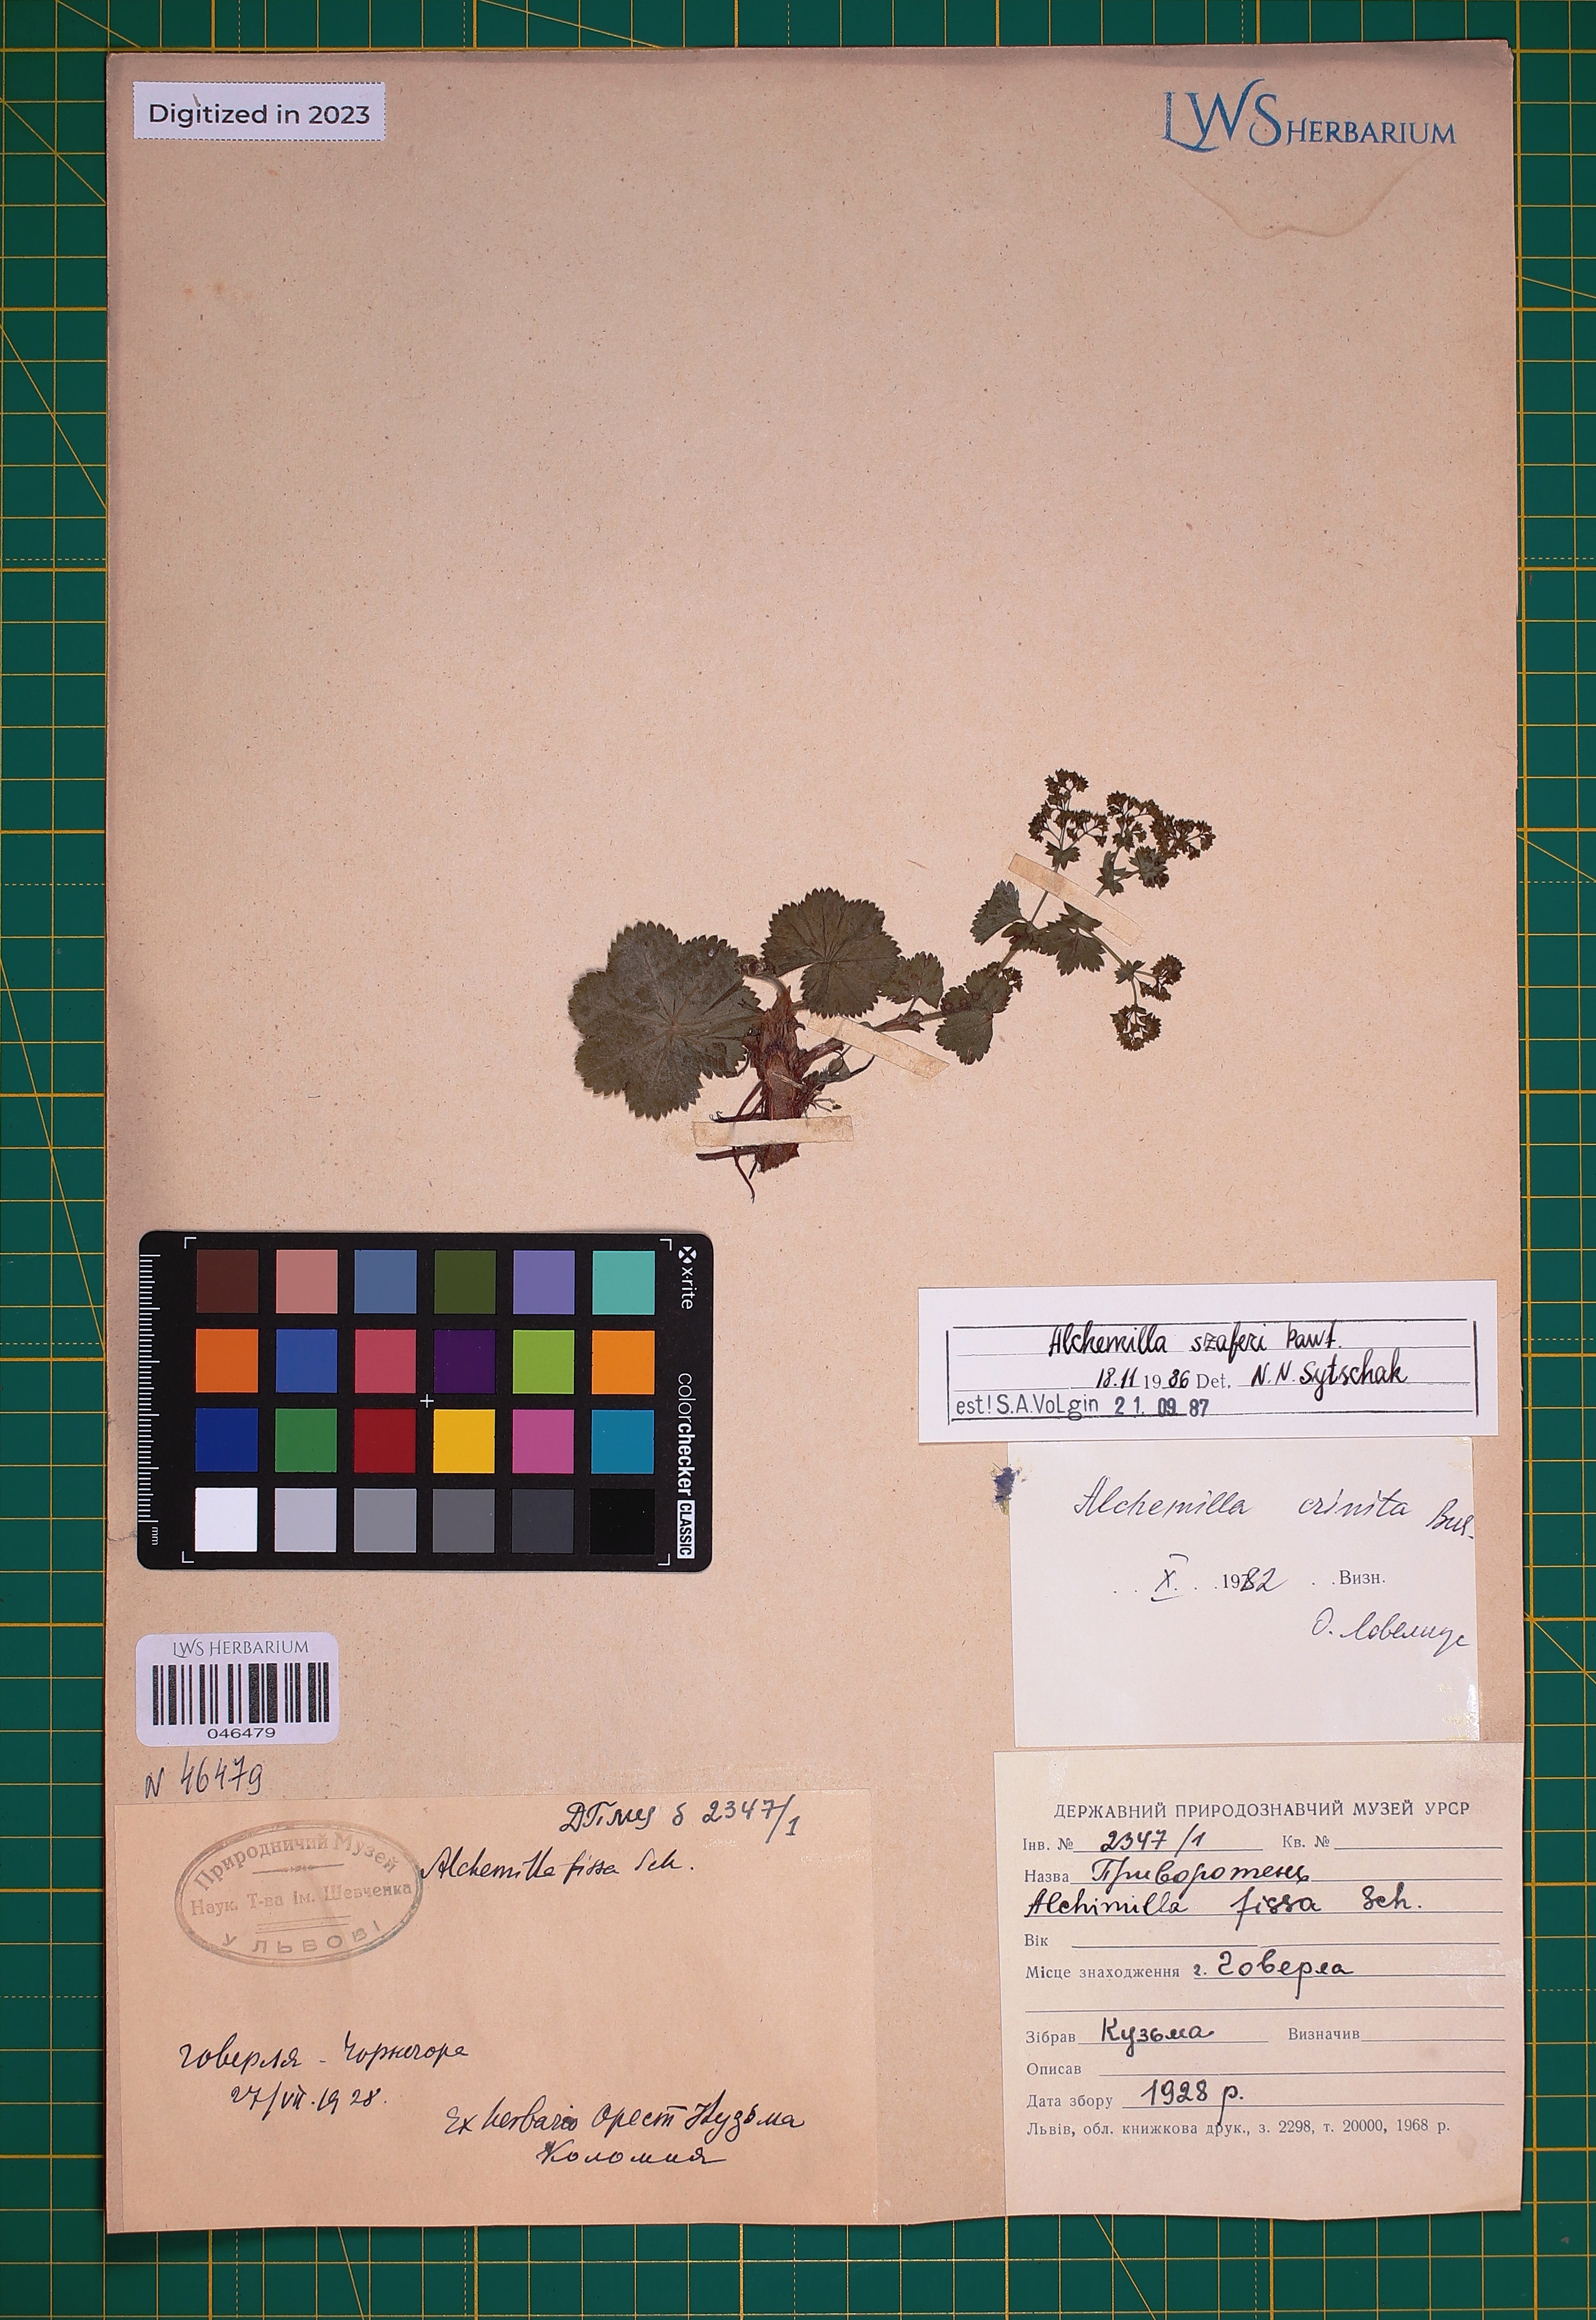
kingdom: Plantae
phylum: Tracheophyta
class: Magnoliopsida
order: Rosales
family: Rosaceae
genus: Alchemilla
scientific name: Alchemilla szaferi
